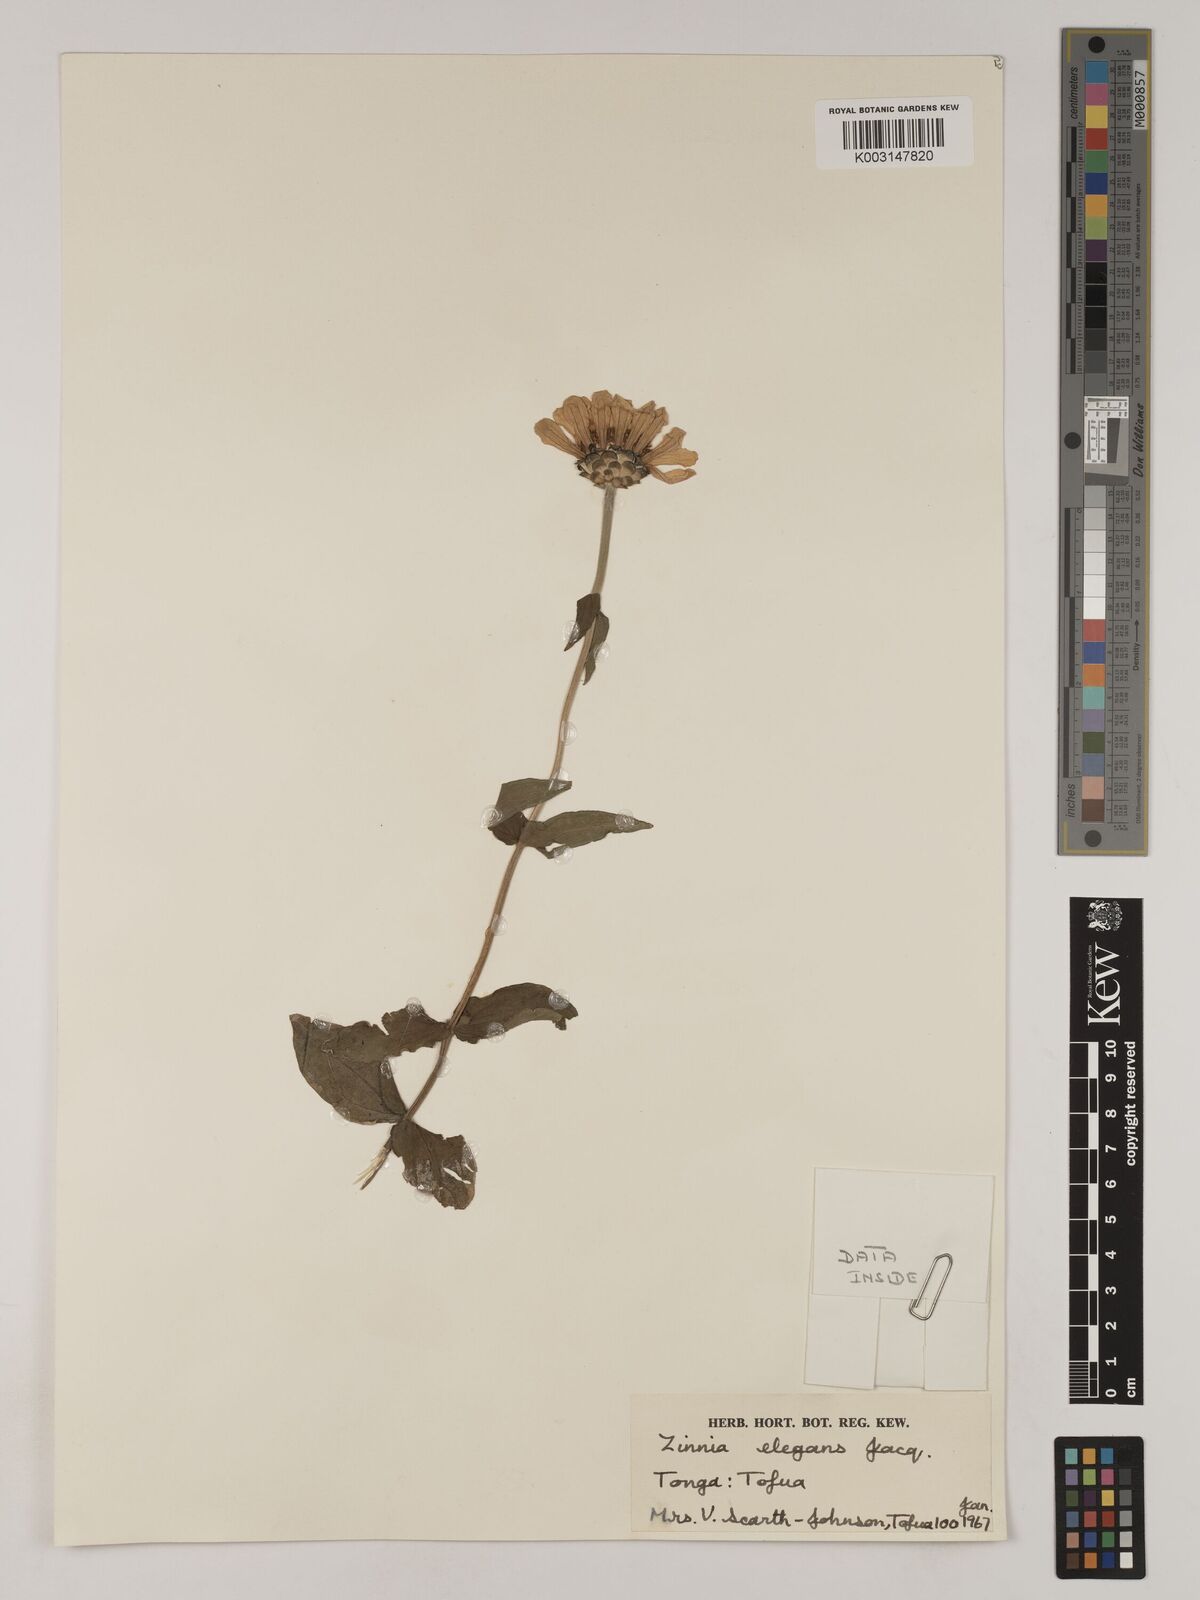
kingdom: Plantae
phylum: Tracheophyta
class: Magnoliopsida
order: Asterales
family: Asteraceae
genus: Zinnia
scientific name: Zinnia elegans
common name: Youth-and-age
